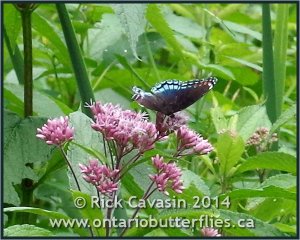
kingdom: Animalia
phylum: Arthropoda
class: Insecta
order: Lepidoptera
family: Nymphalidae
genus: Limenitis
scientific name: Limenitis astyanax
